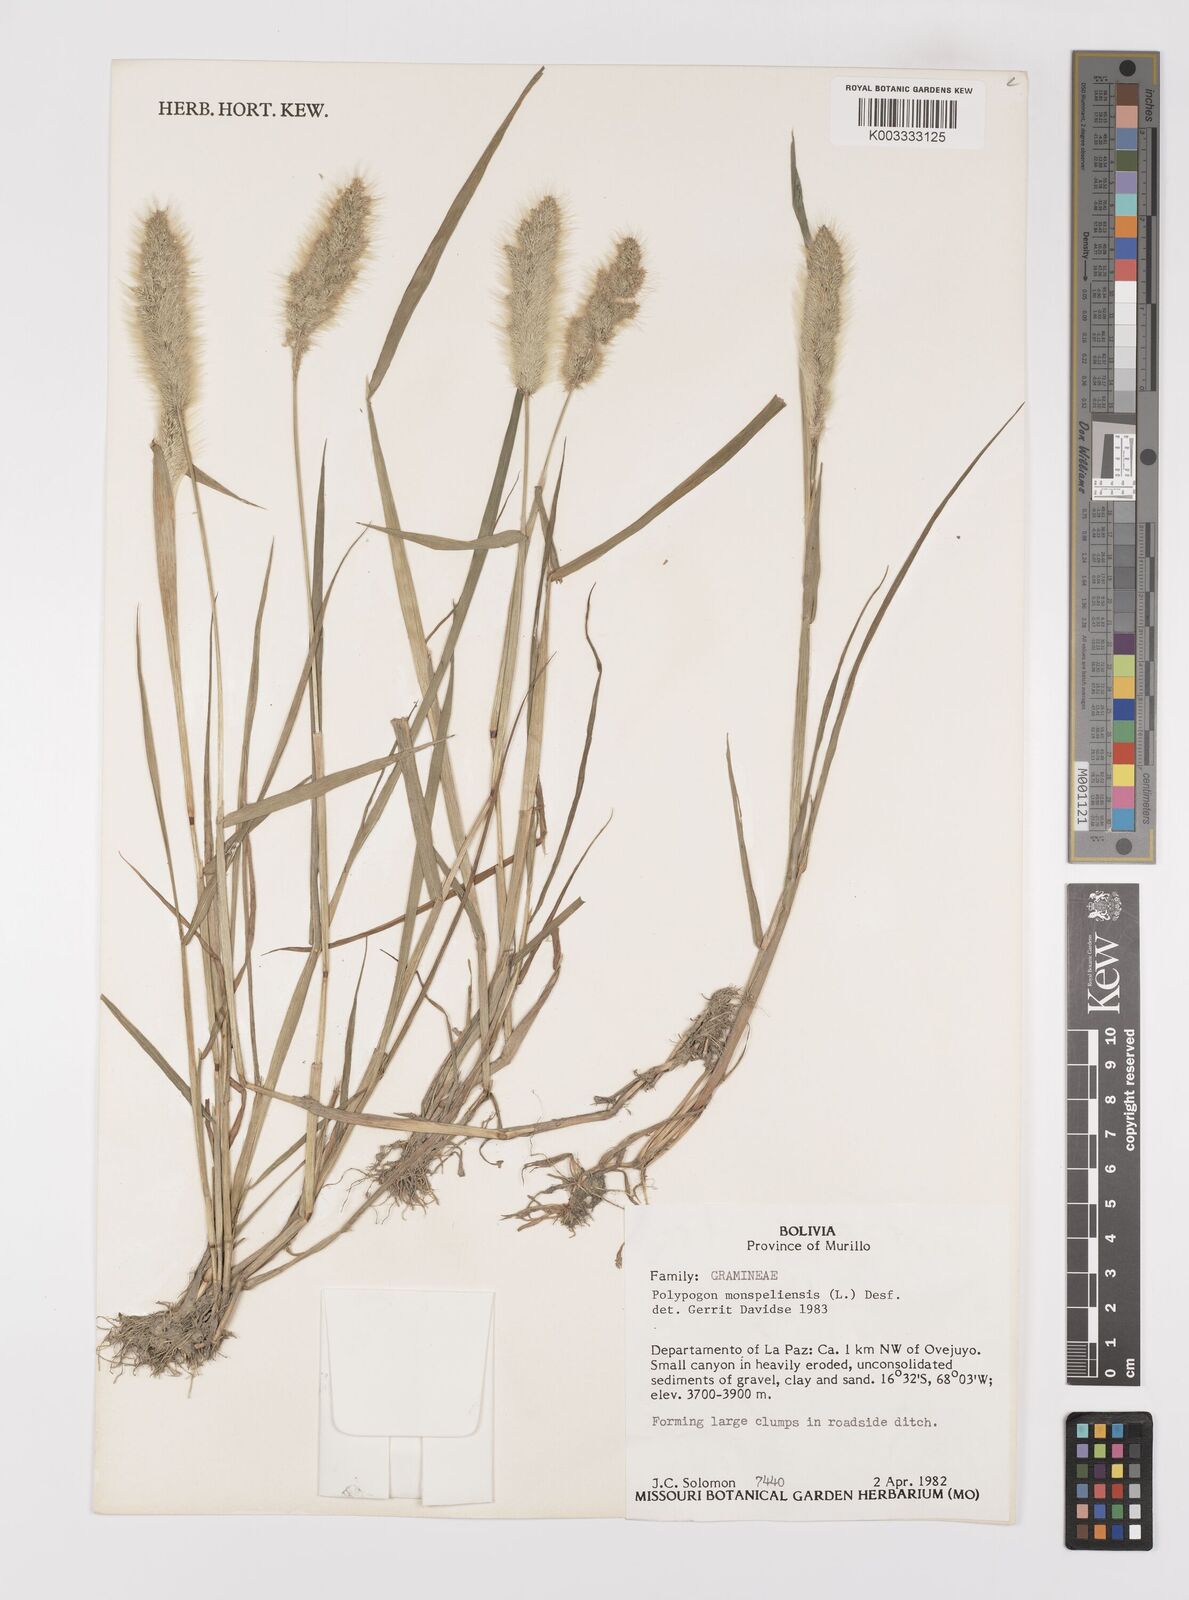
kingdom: Plantae
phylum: Tracheophyta
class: Liliopsida
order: Poales
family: Poaceae
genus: Polypogon
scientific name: Polypogon monspeliensis
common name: Annual rabbitsfoot grass
